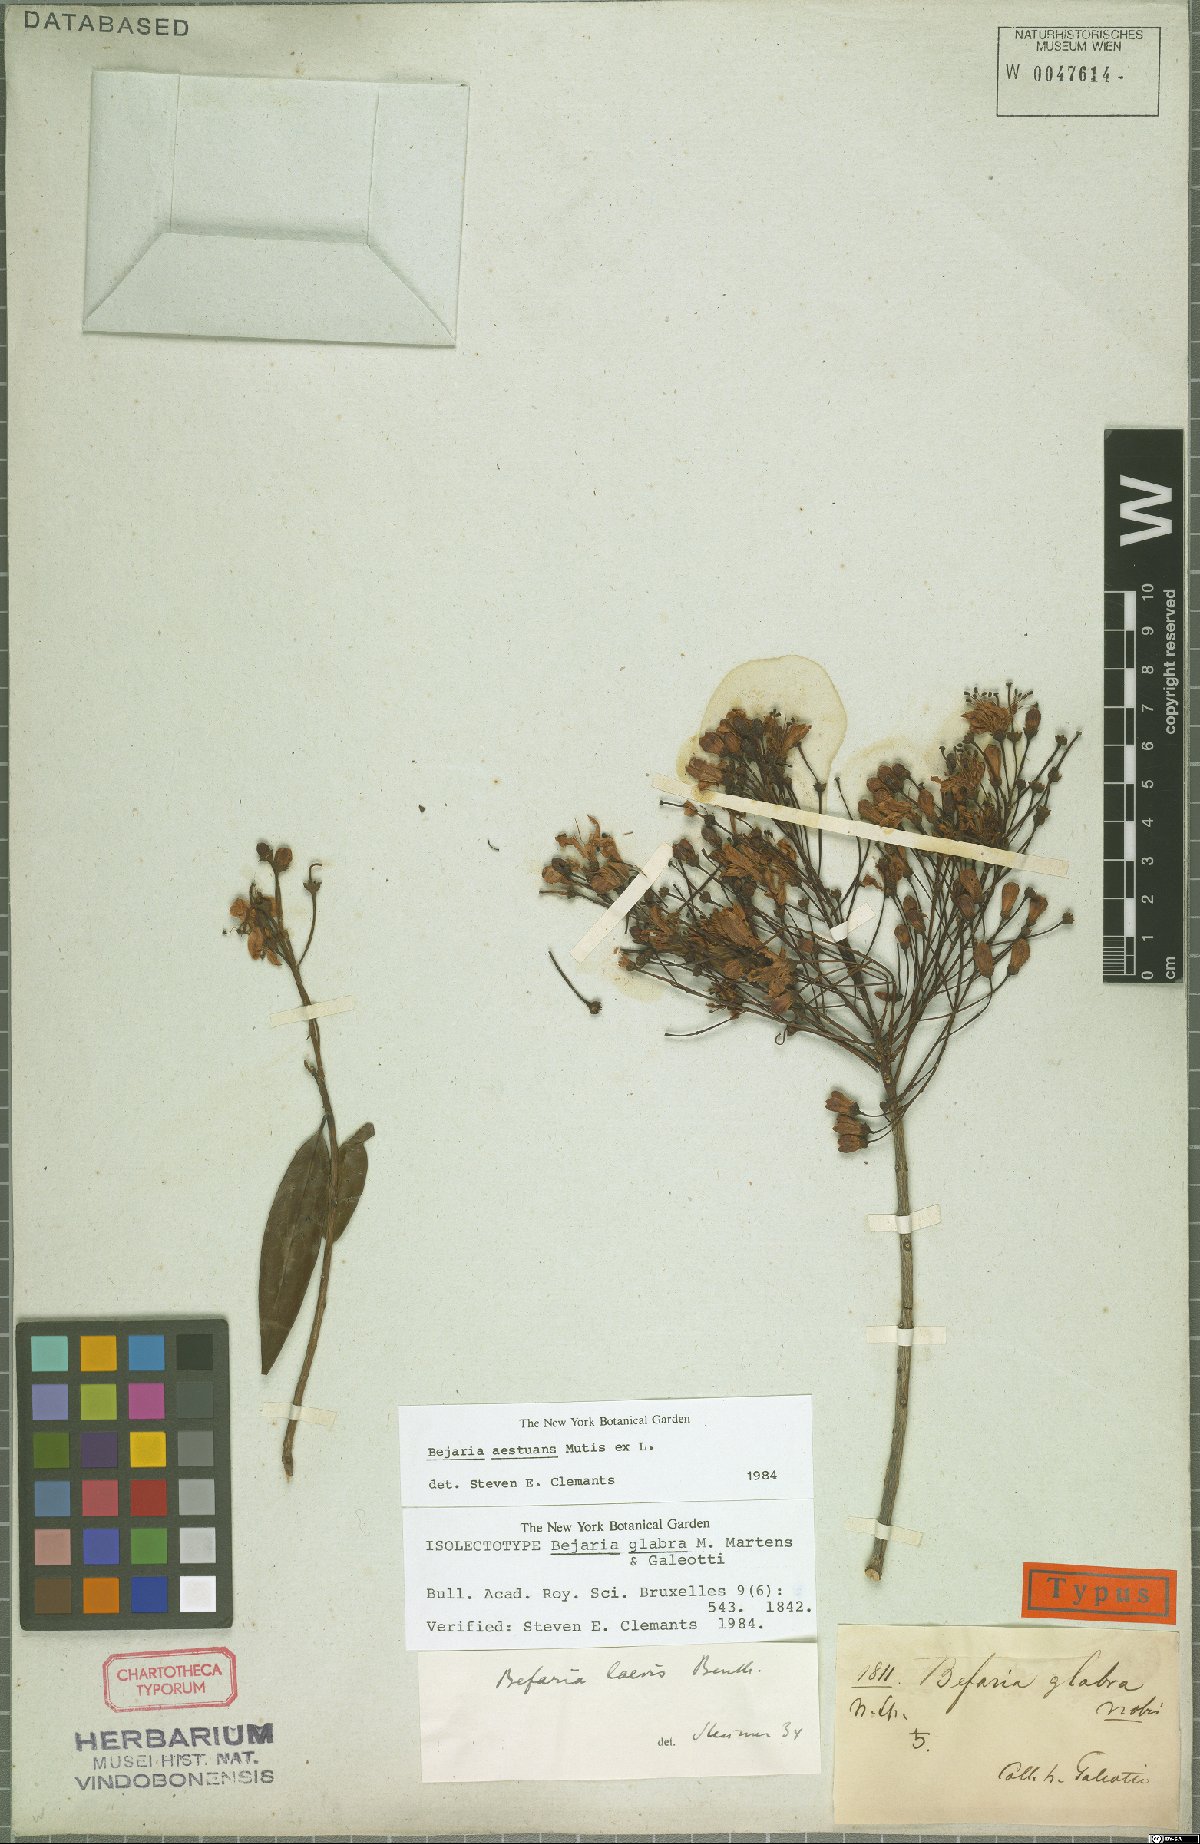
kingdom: Plantae
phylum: Tracheophyta
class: Magnoliopsida
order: Ericales
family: Ericaceae
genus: Bejaria
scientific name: Bejaria aestuans
